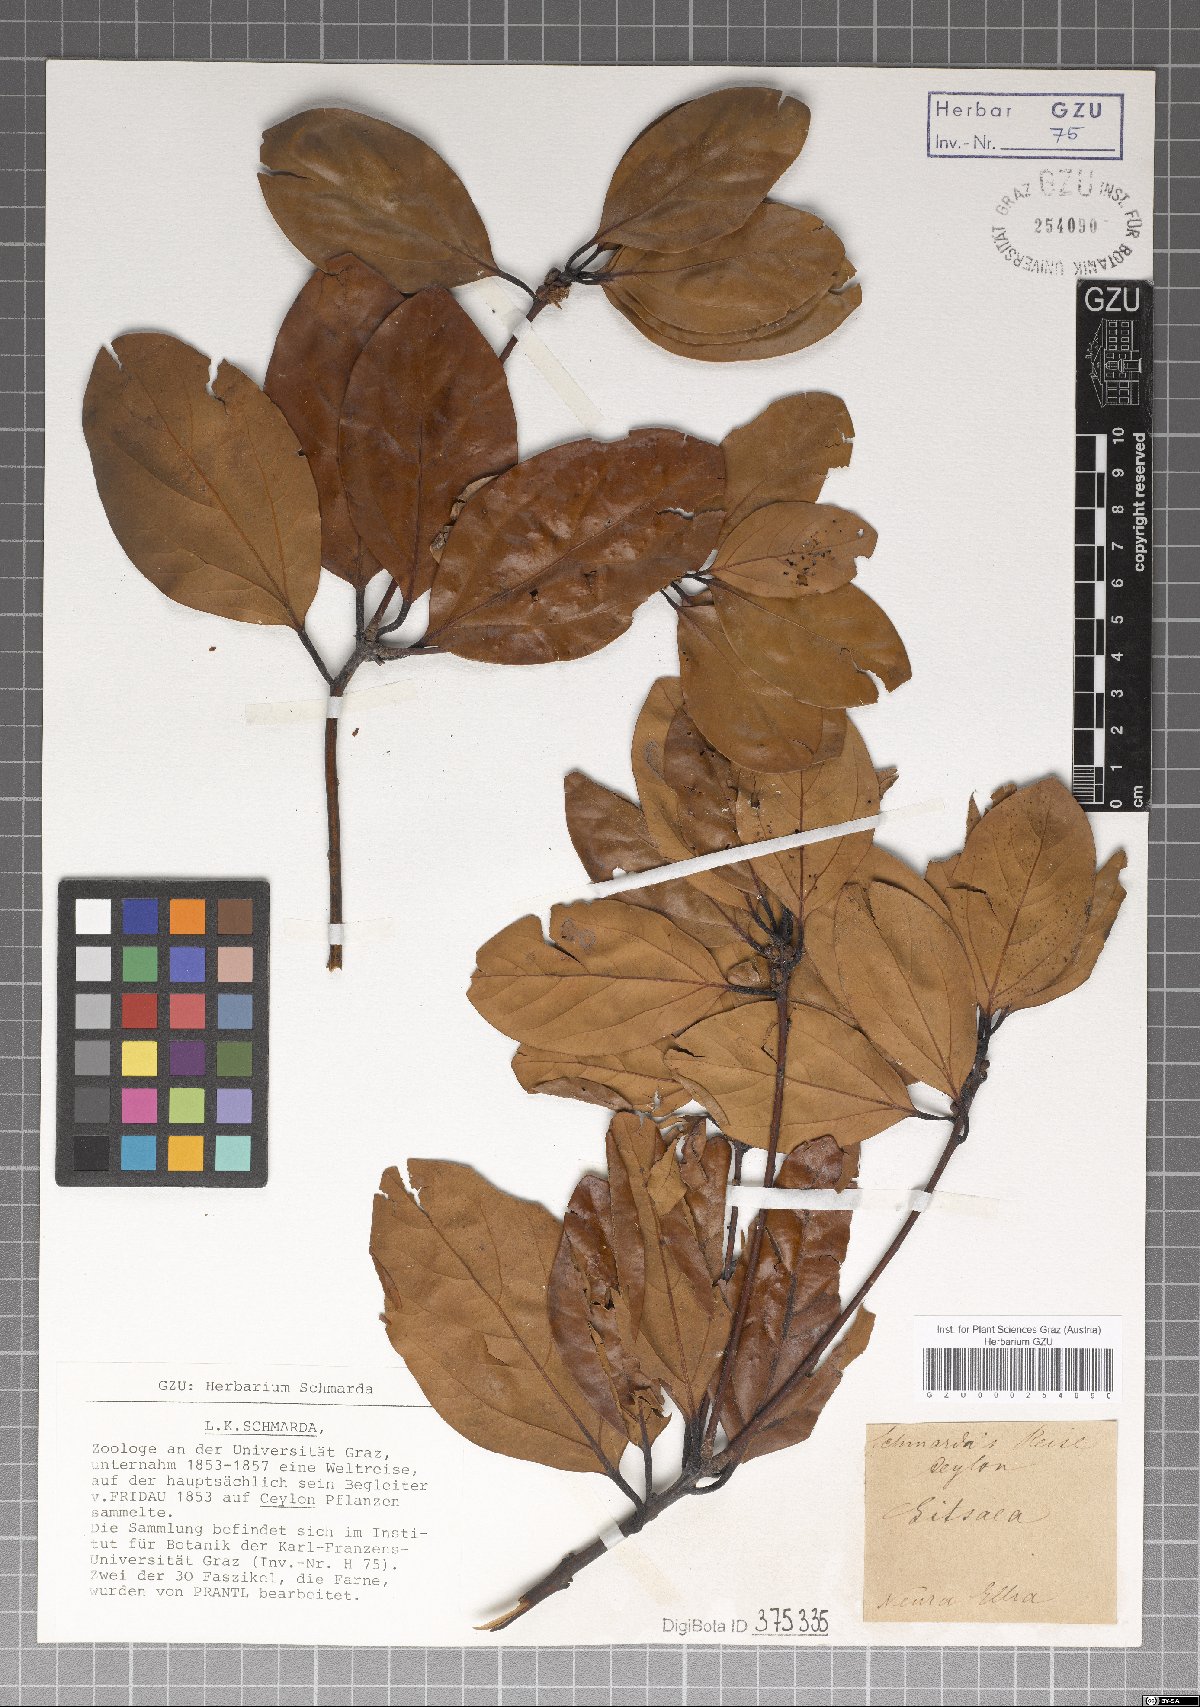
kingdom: Plantae
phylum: Tracheophyta
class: Magnoliopsida
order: Laurales
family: Lauraceae
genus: Litsea
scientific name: Litsea
